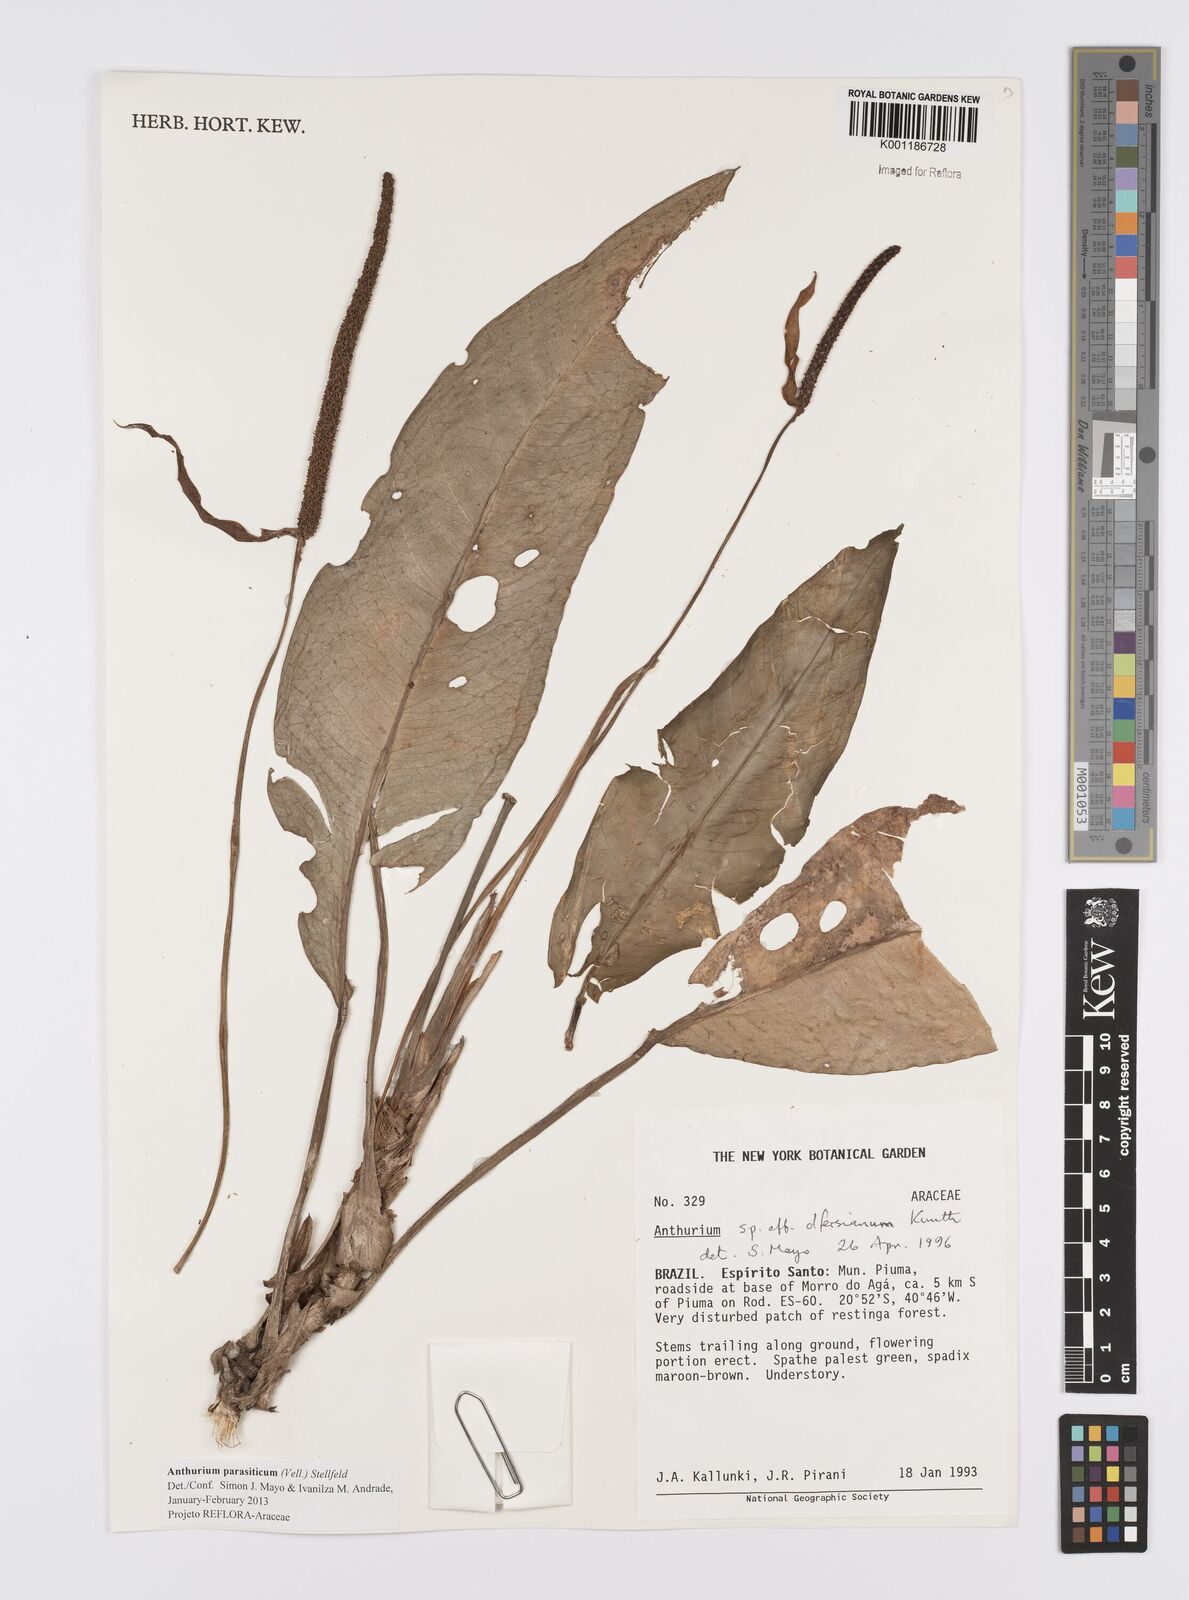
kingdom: Plantae
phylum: Tracheophyta
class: Liliopsida
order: Alismatales
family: Araceae
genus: Anthurium
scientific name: Anthurium parasiticum
